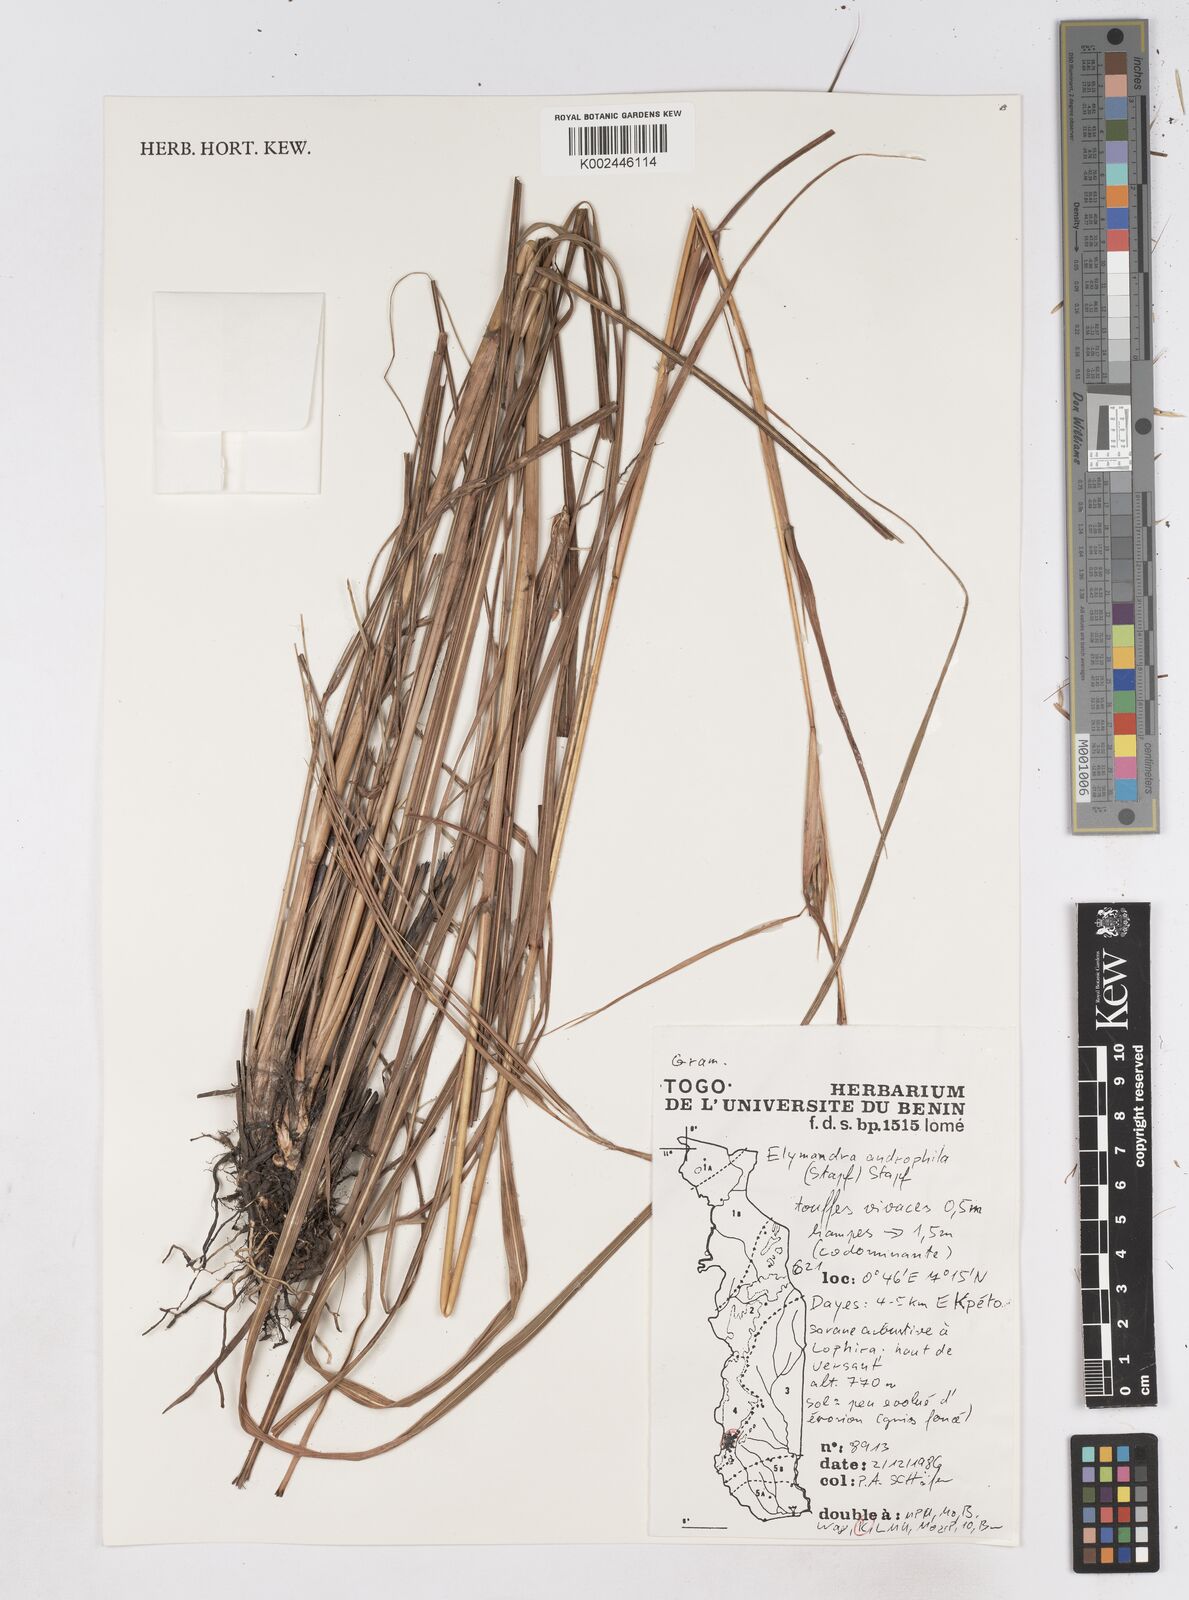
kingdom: Plantae
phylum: Tracheophyta
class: Liliopsida
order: Poales
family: Poaceae
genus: Elymandra
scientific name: Elymandra androphila
